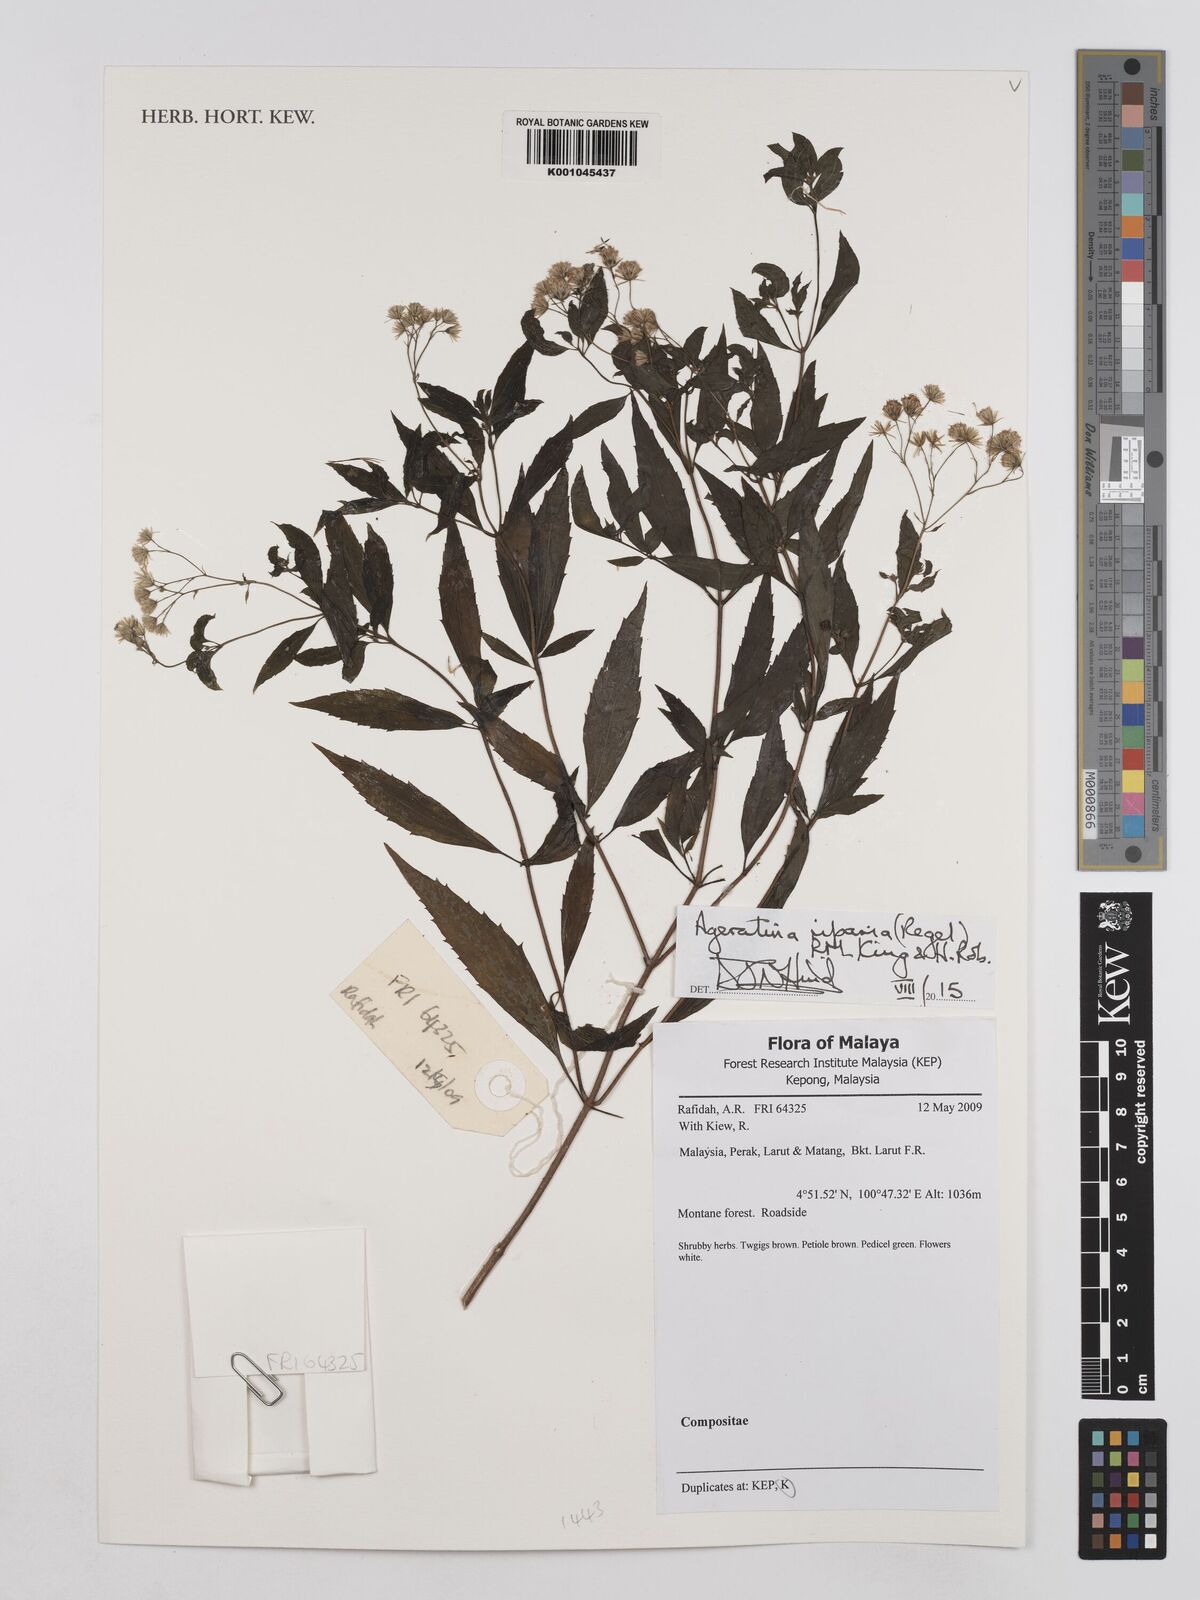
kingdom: Plantae
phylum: Tracheophyta
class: Magnoliopsida
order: Asterales
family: Asteraceae
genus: Ageratina
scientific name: Ageratina riparia
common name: Creeping croftonweed
